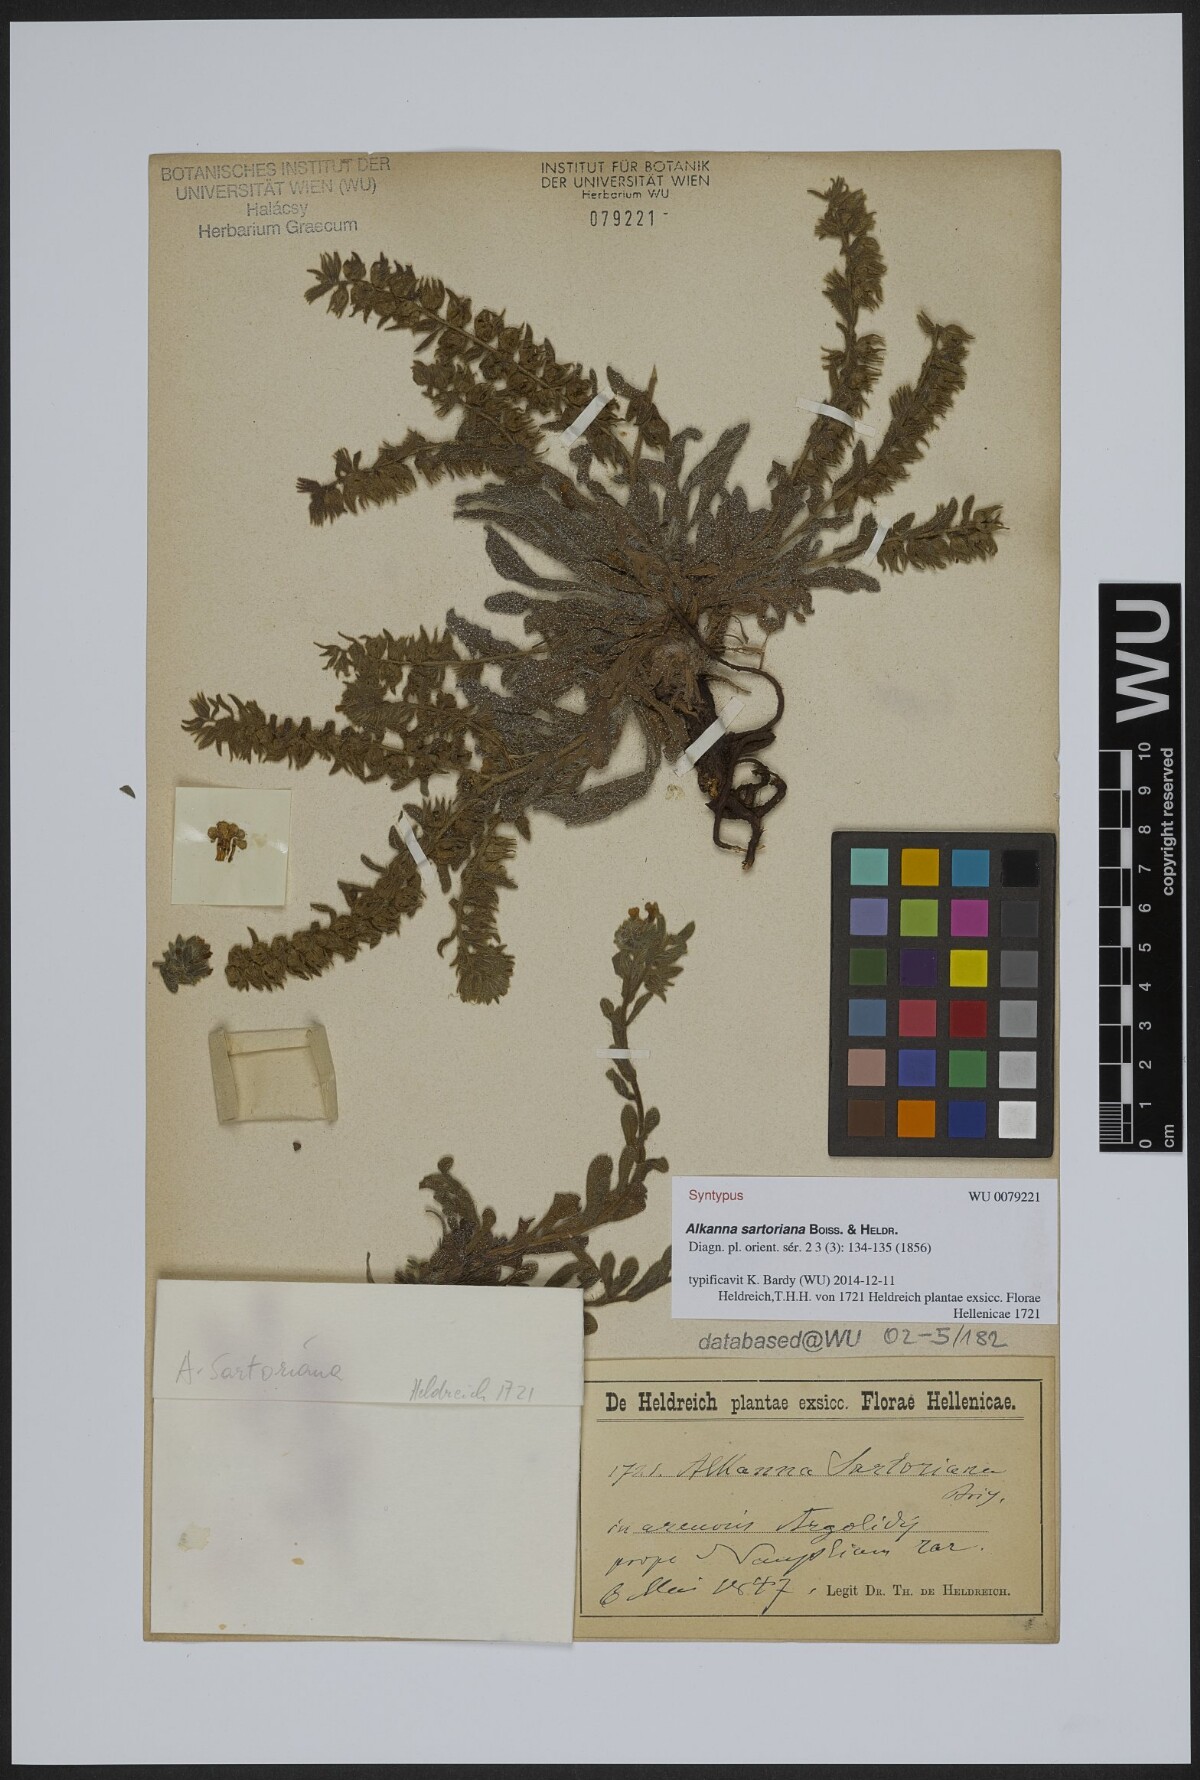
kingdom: Plantae
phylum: Tracheophyta
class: Magnoliopsida
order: Boraginales
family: Boraginaceae
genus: Alkanna
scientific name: Alkanna sartoriana
